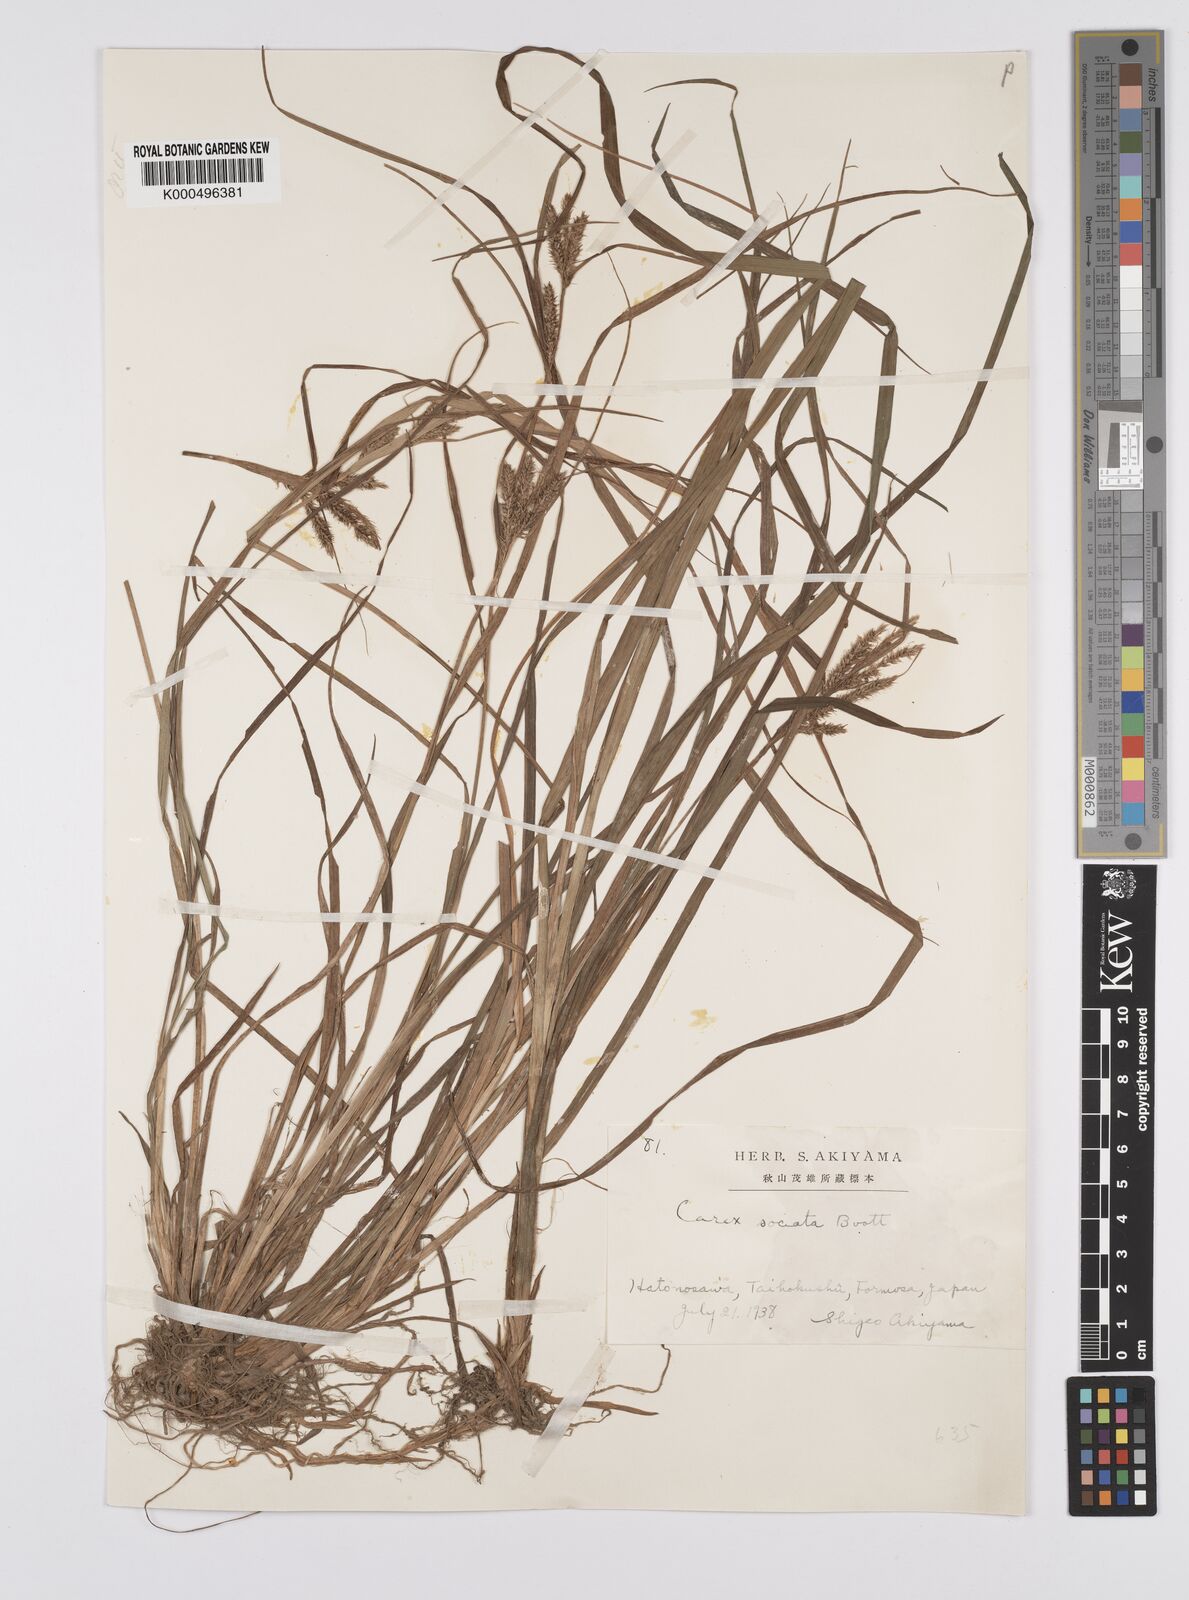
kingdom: Plantae
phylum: Tracheophyta
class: Liliopsida
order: Poales
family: Cyperaceae
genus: Carex
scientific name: Carex chinensis
